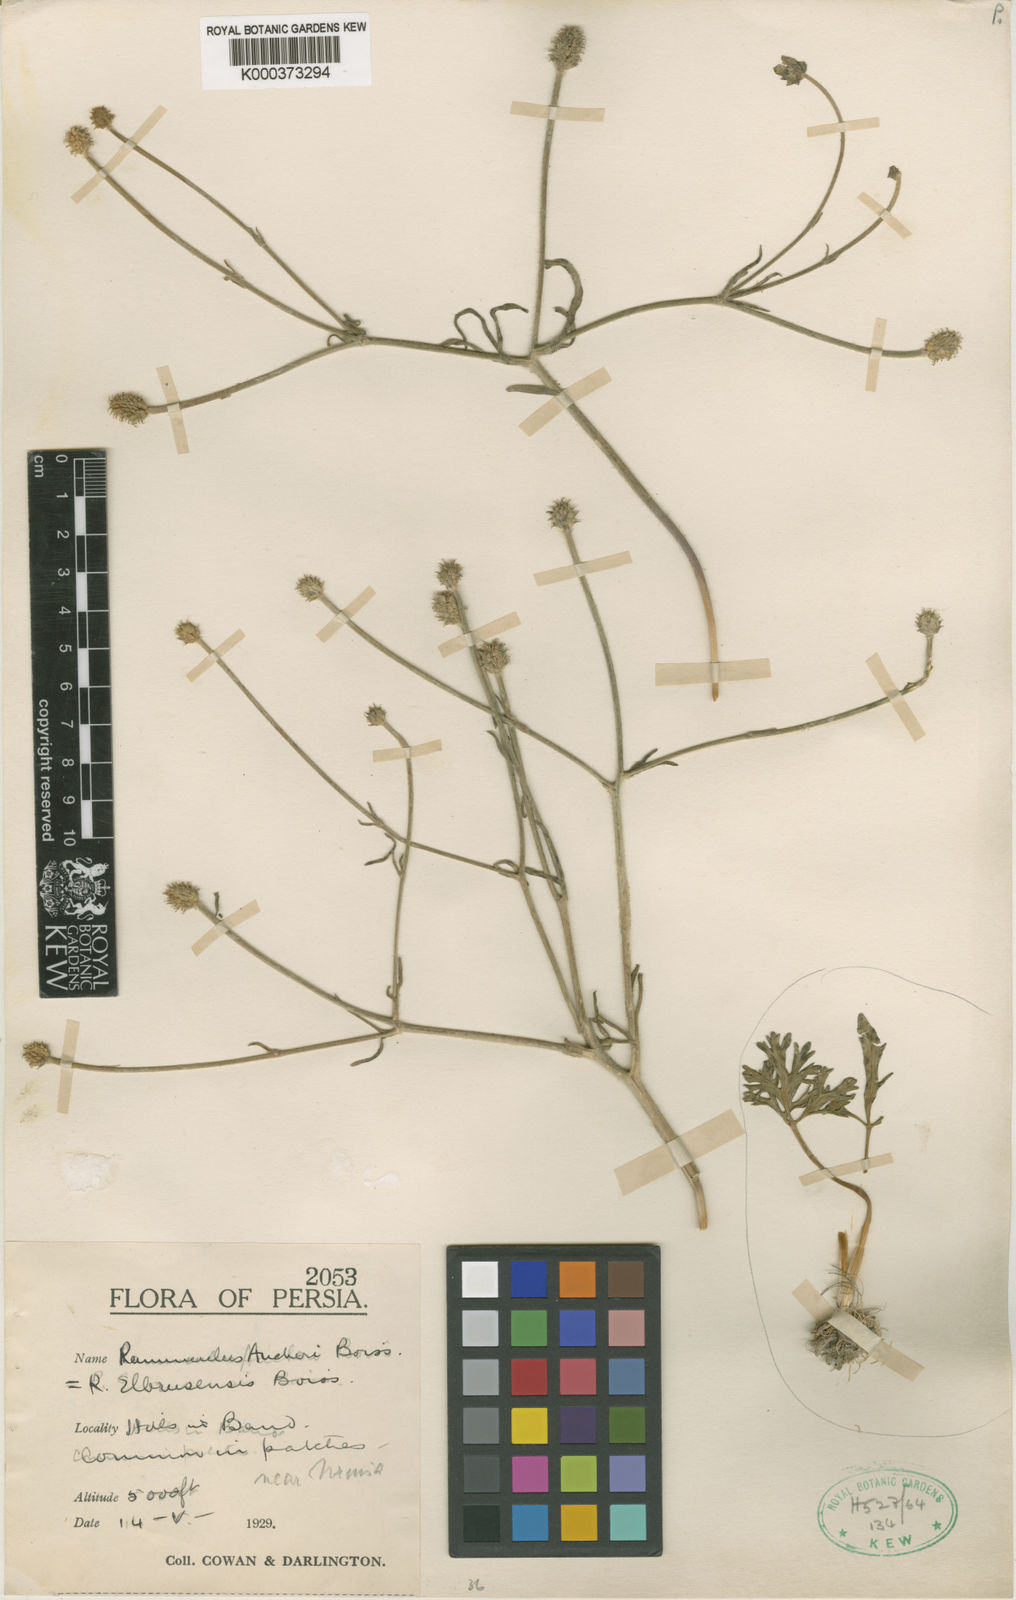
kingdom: Plantae
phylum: Tracheophyta
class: Magnoliopsida
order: Ranunculales
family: Ranunculaceae
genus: Ranunculus
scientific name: Ranunculus aucheri
